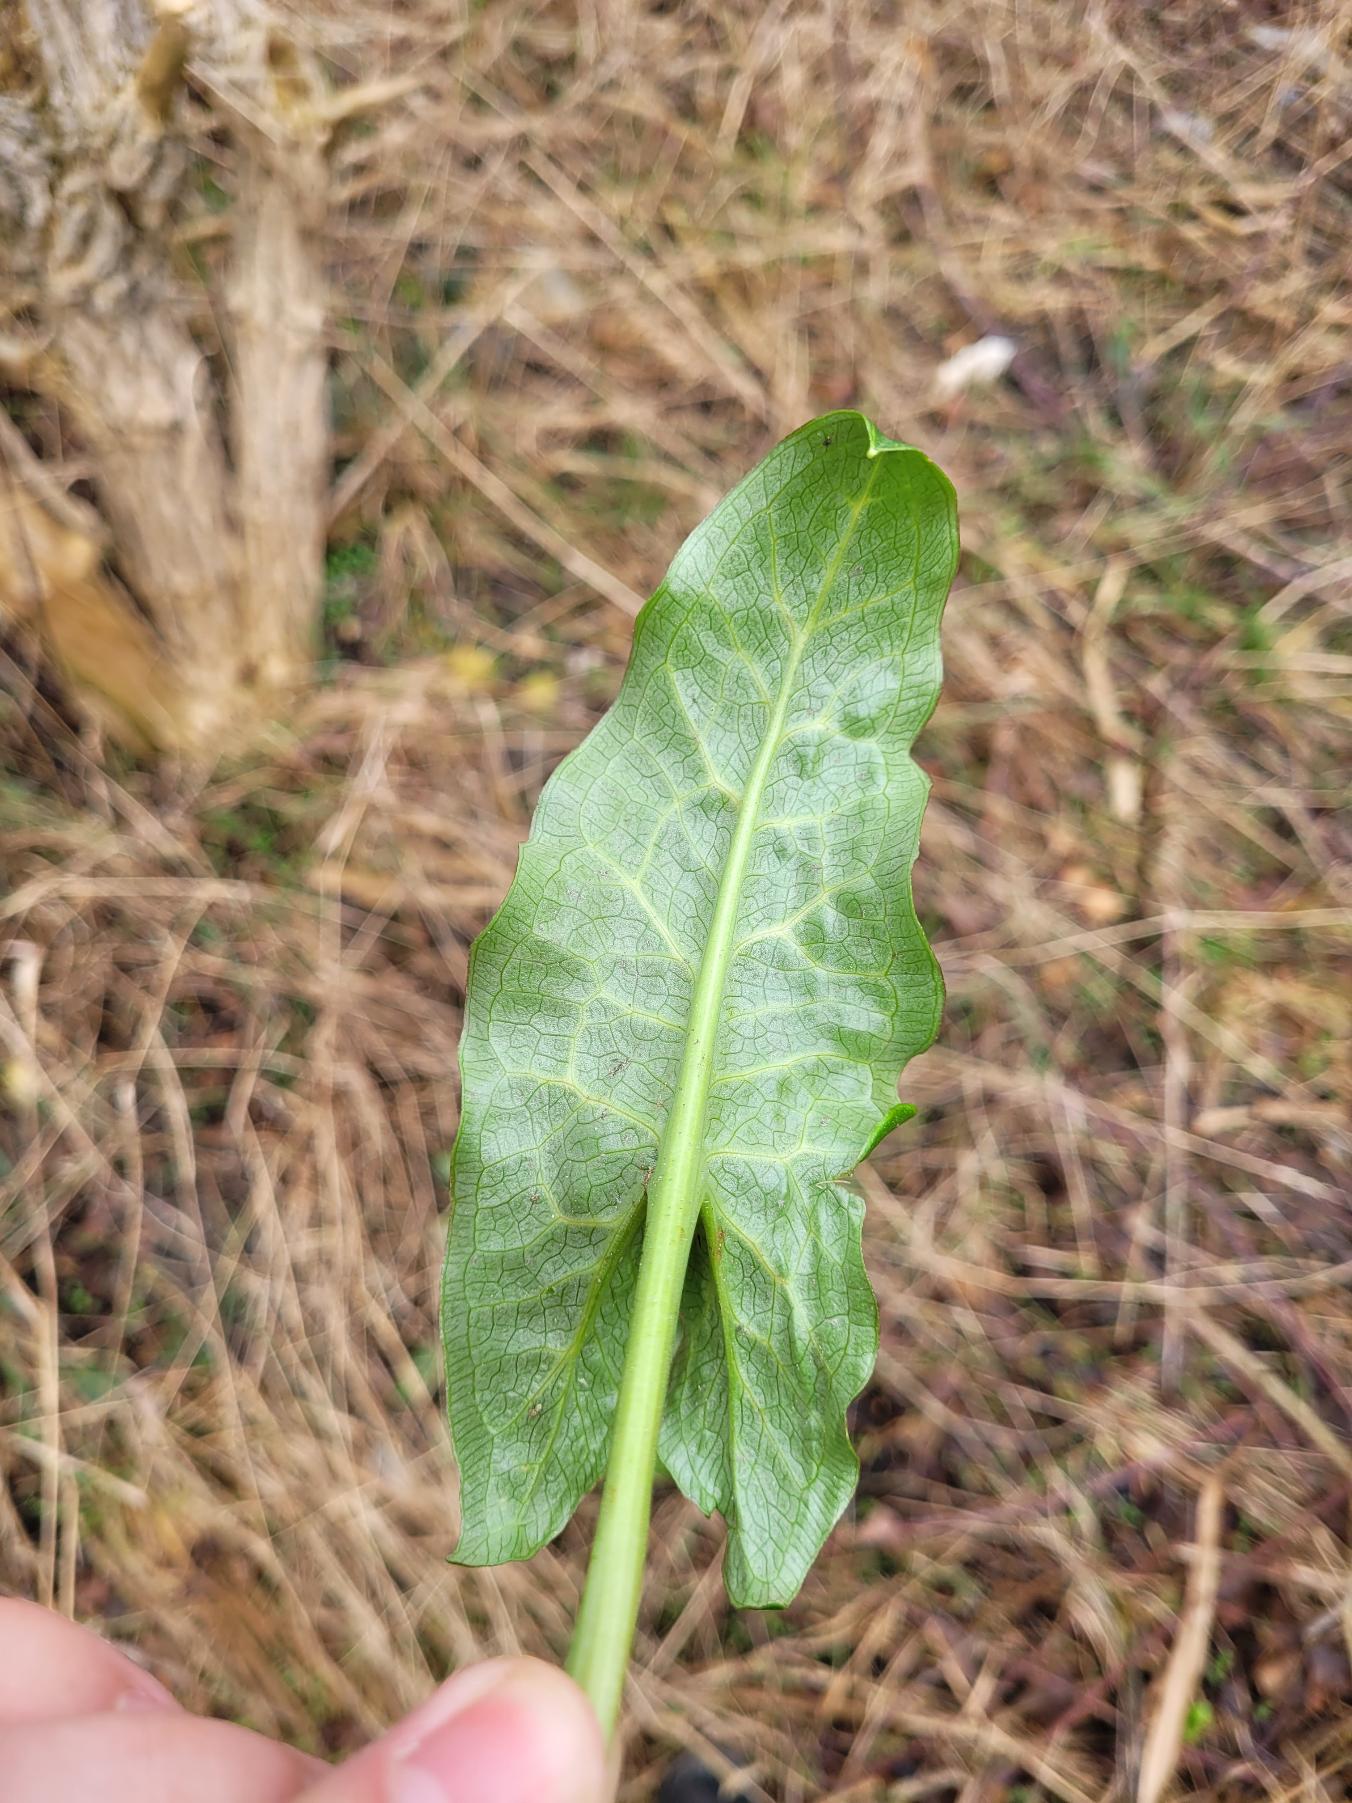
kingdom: Plantae
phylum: Tracheophyta
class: Liliopsida
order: Alismatales
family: Araceae
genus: Arum
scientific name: Arum italicum
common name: Italiensk arum
